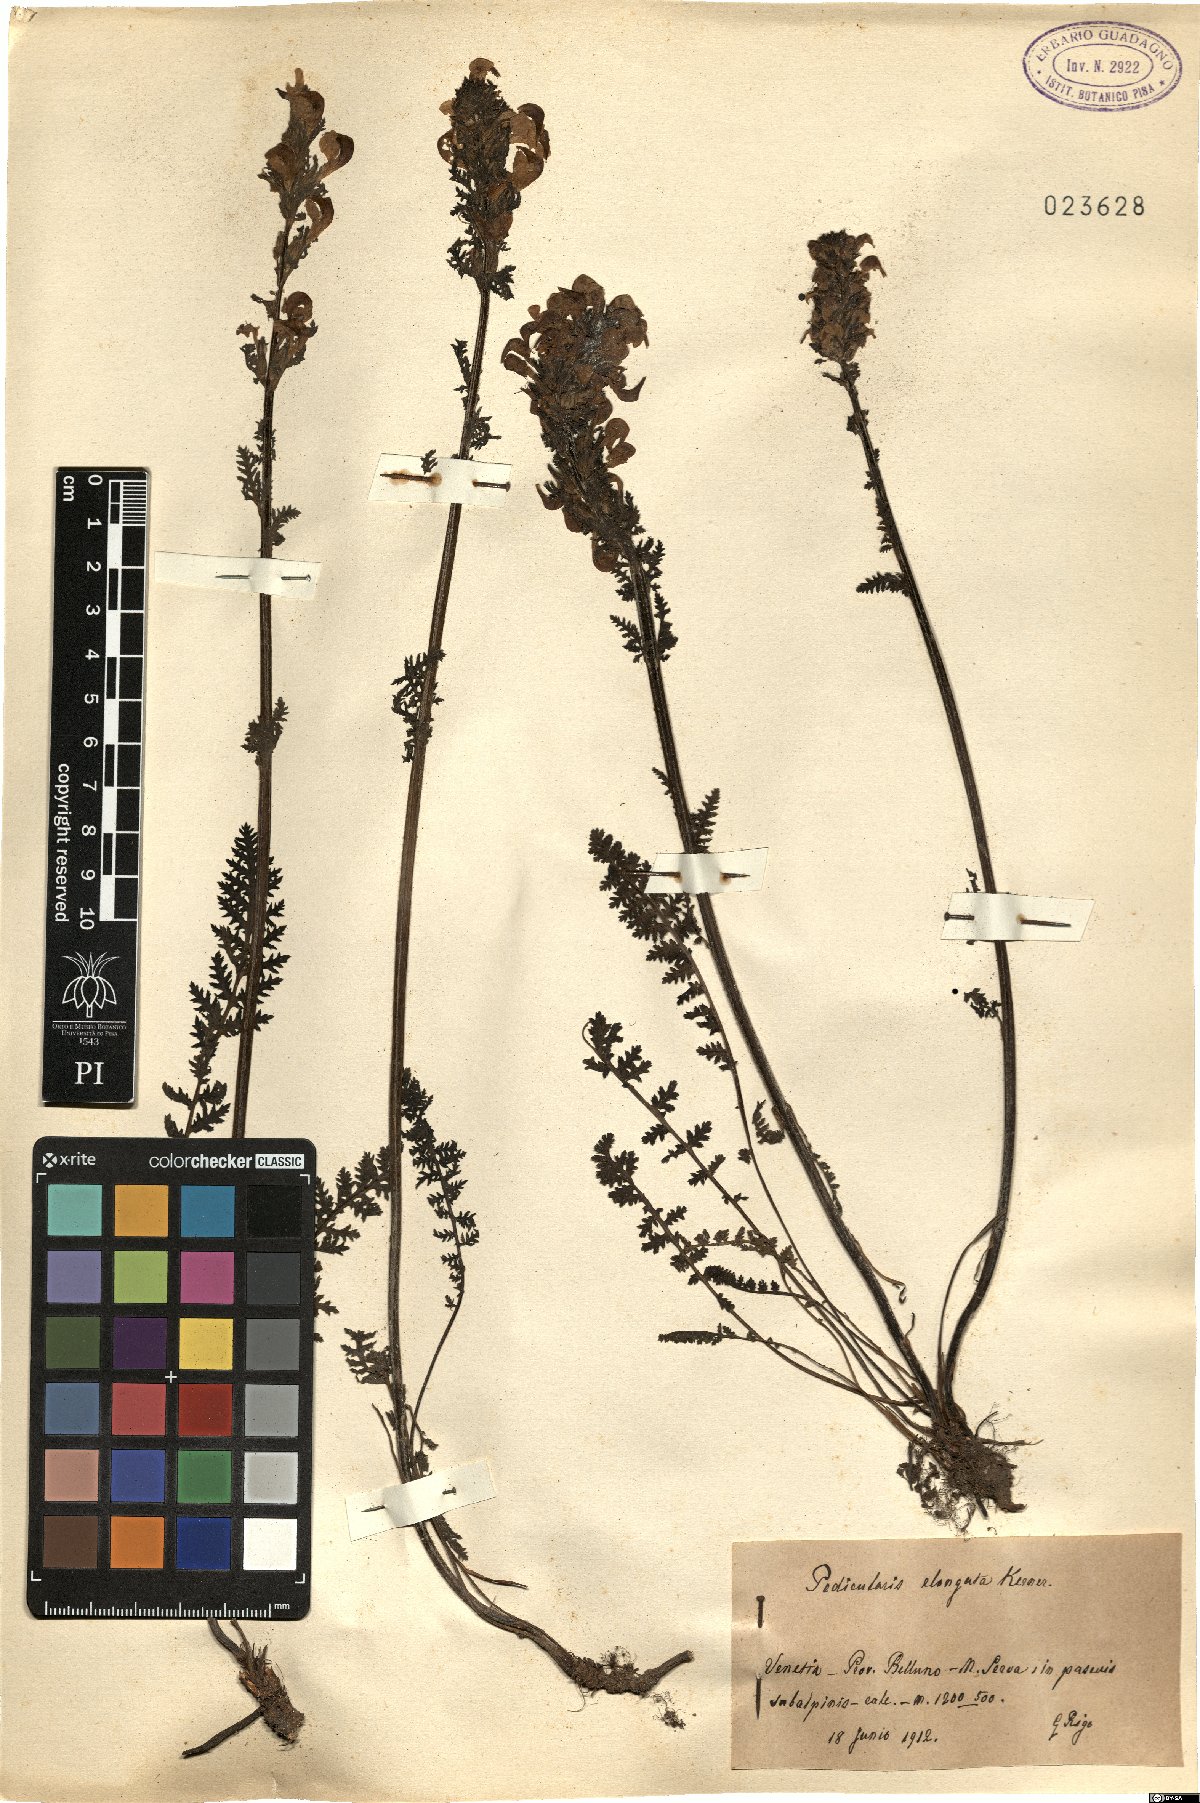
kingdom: Plantae
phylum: Tracheophyta
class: Magnoliopsida
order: Lamiales
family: Orobanchaceae
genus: Pedicularis
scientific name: Pedicularis elongata
